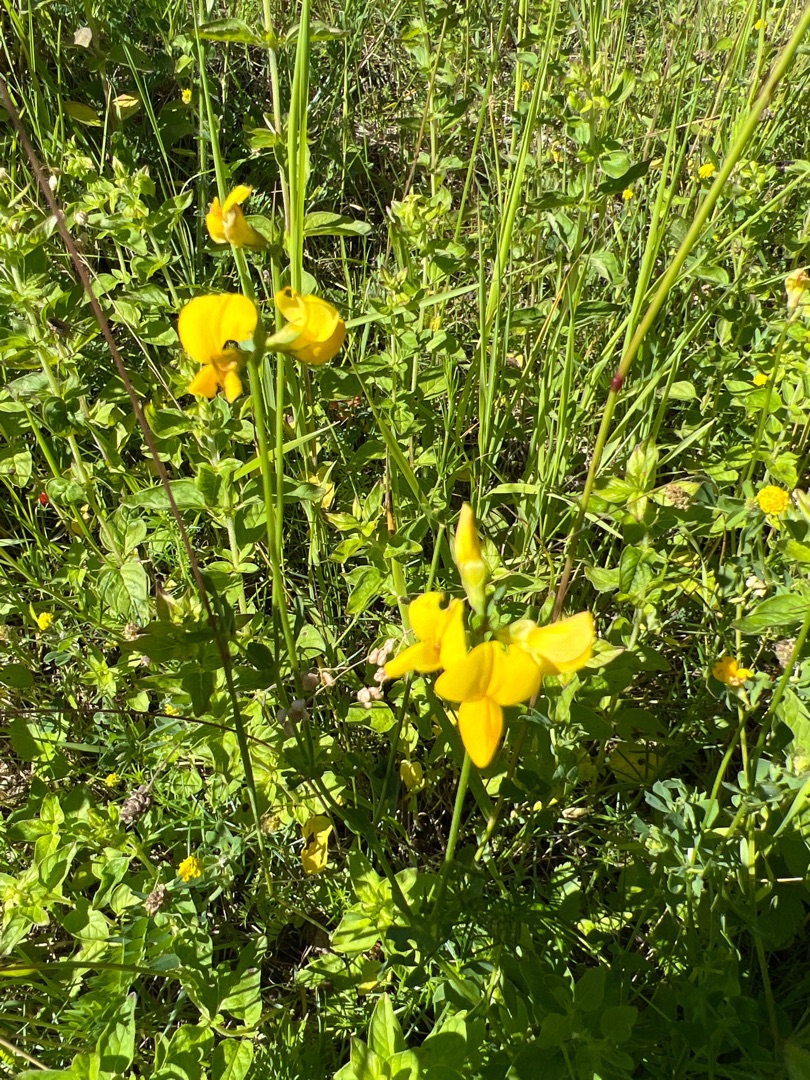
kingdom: Plantae
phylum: Tracheophyta
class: Magnoliopsida
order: Fabales
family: Fabaceae
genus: Lotus
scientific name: Lotus corniculatus
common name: Almindelig kællingetand
